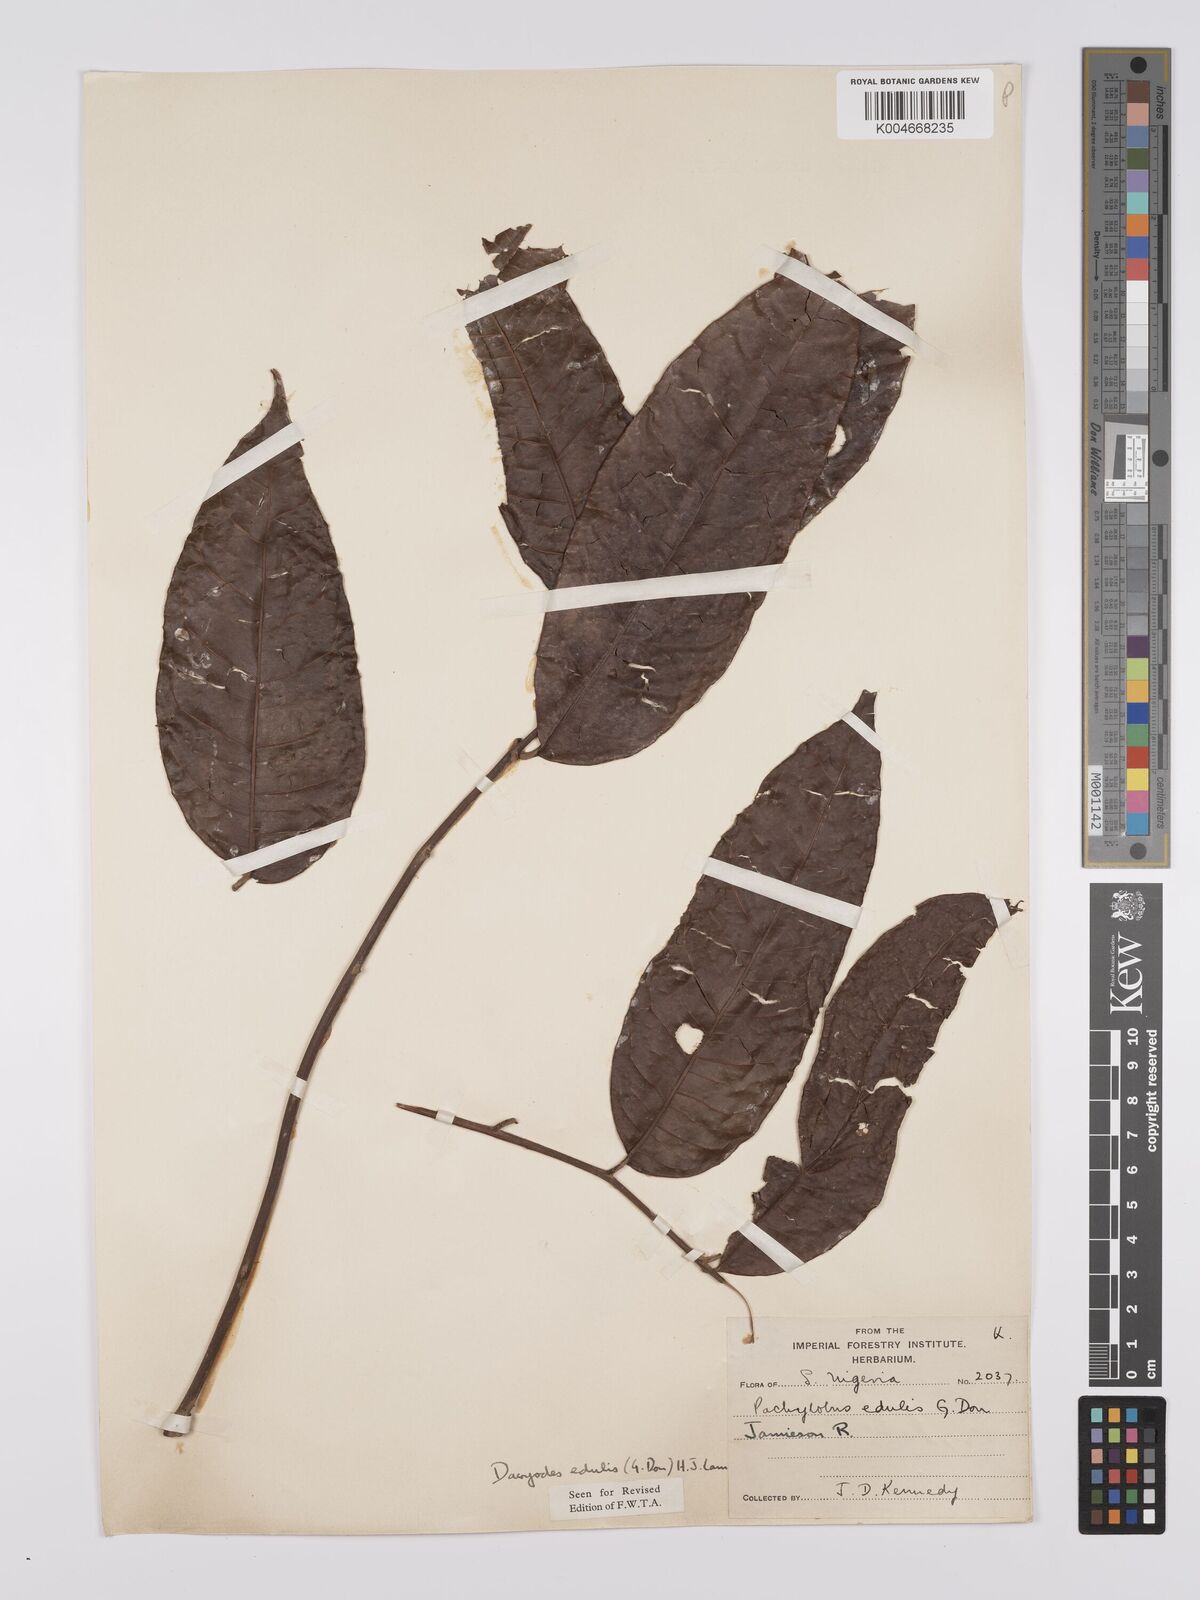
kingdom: Plantae
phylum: Tracheophyta
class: Magnoliopsida
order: Sapindales
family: Burseraceae
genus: Pachylobus
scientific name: Pachylobus edulis
